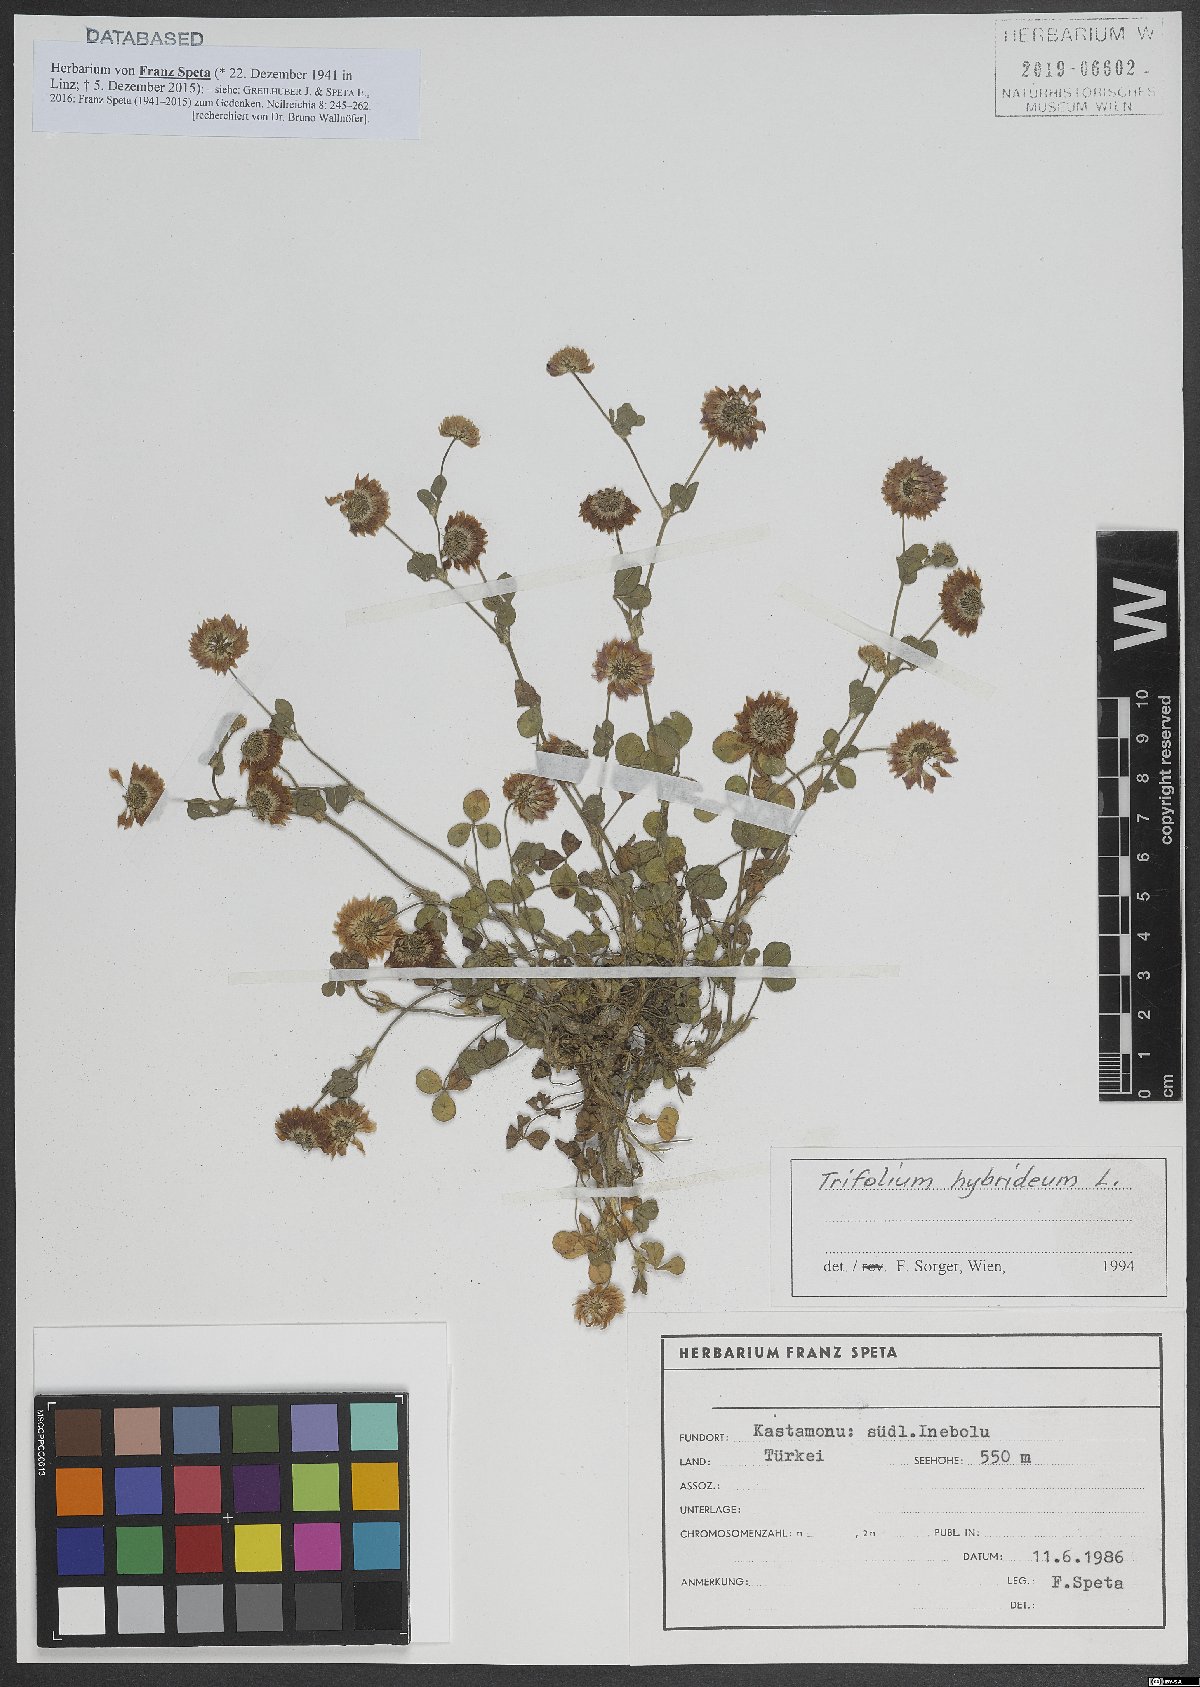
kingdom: Plantae
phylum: Tracheophyta
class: Magnoliopsida
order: Fabales
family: Fabaceae
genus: Trifolium
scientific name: Trifolium hybridum
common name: Alsike clover
